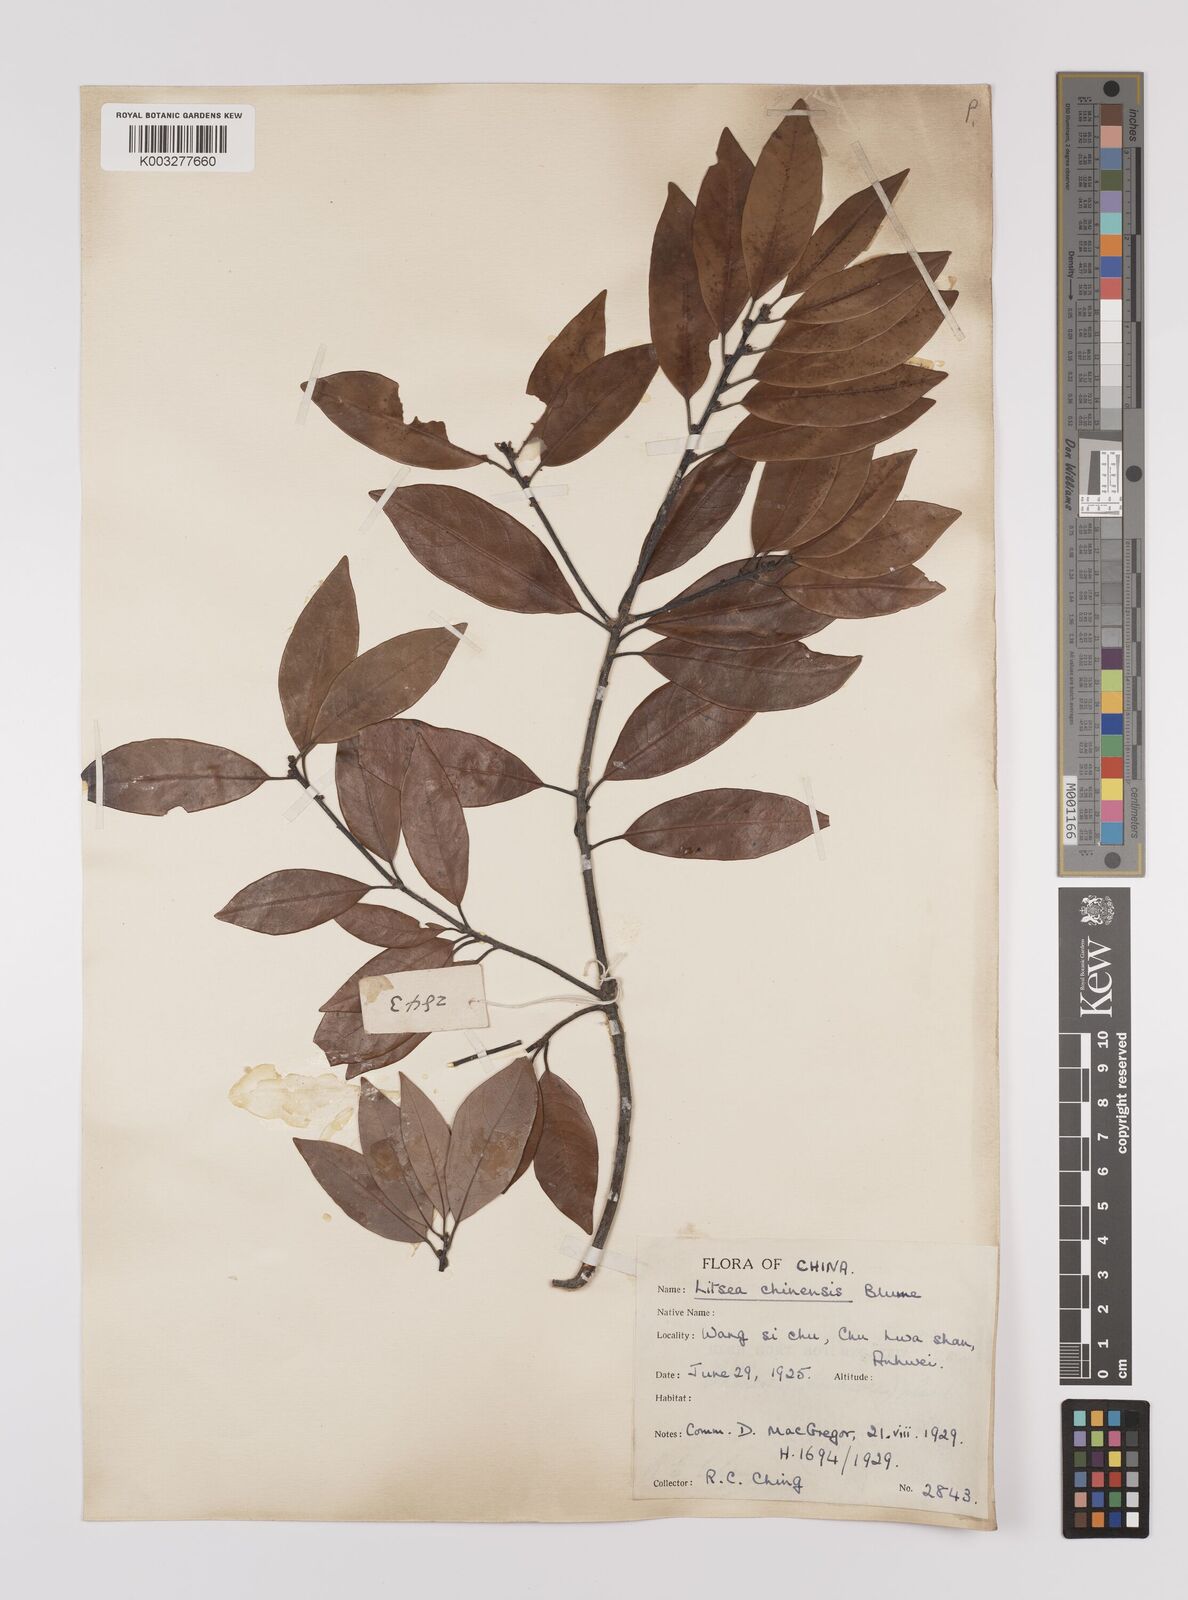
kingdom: Plantae
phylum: Tracheophyta
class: Magnoliopsida
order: Laurales
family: Lauraceae
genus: Litsea
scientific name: Litsea rotundifolia
